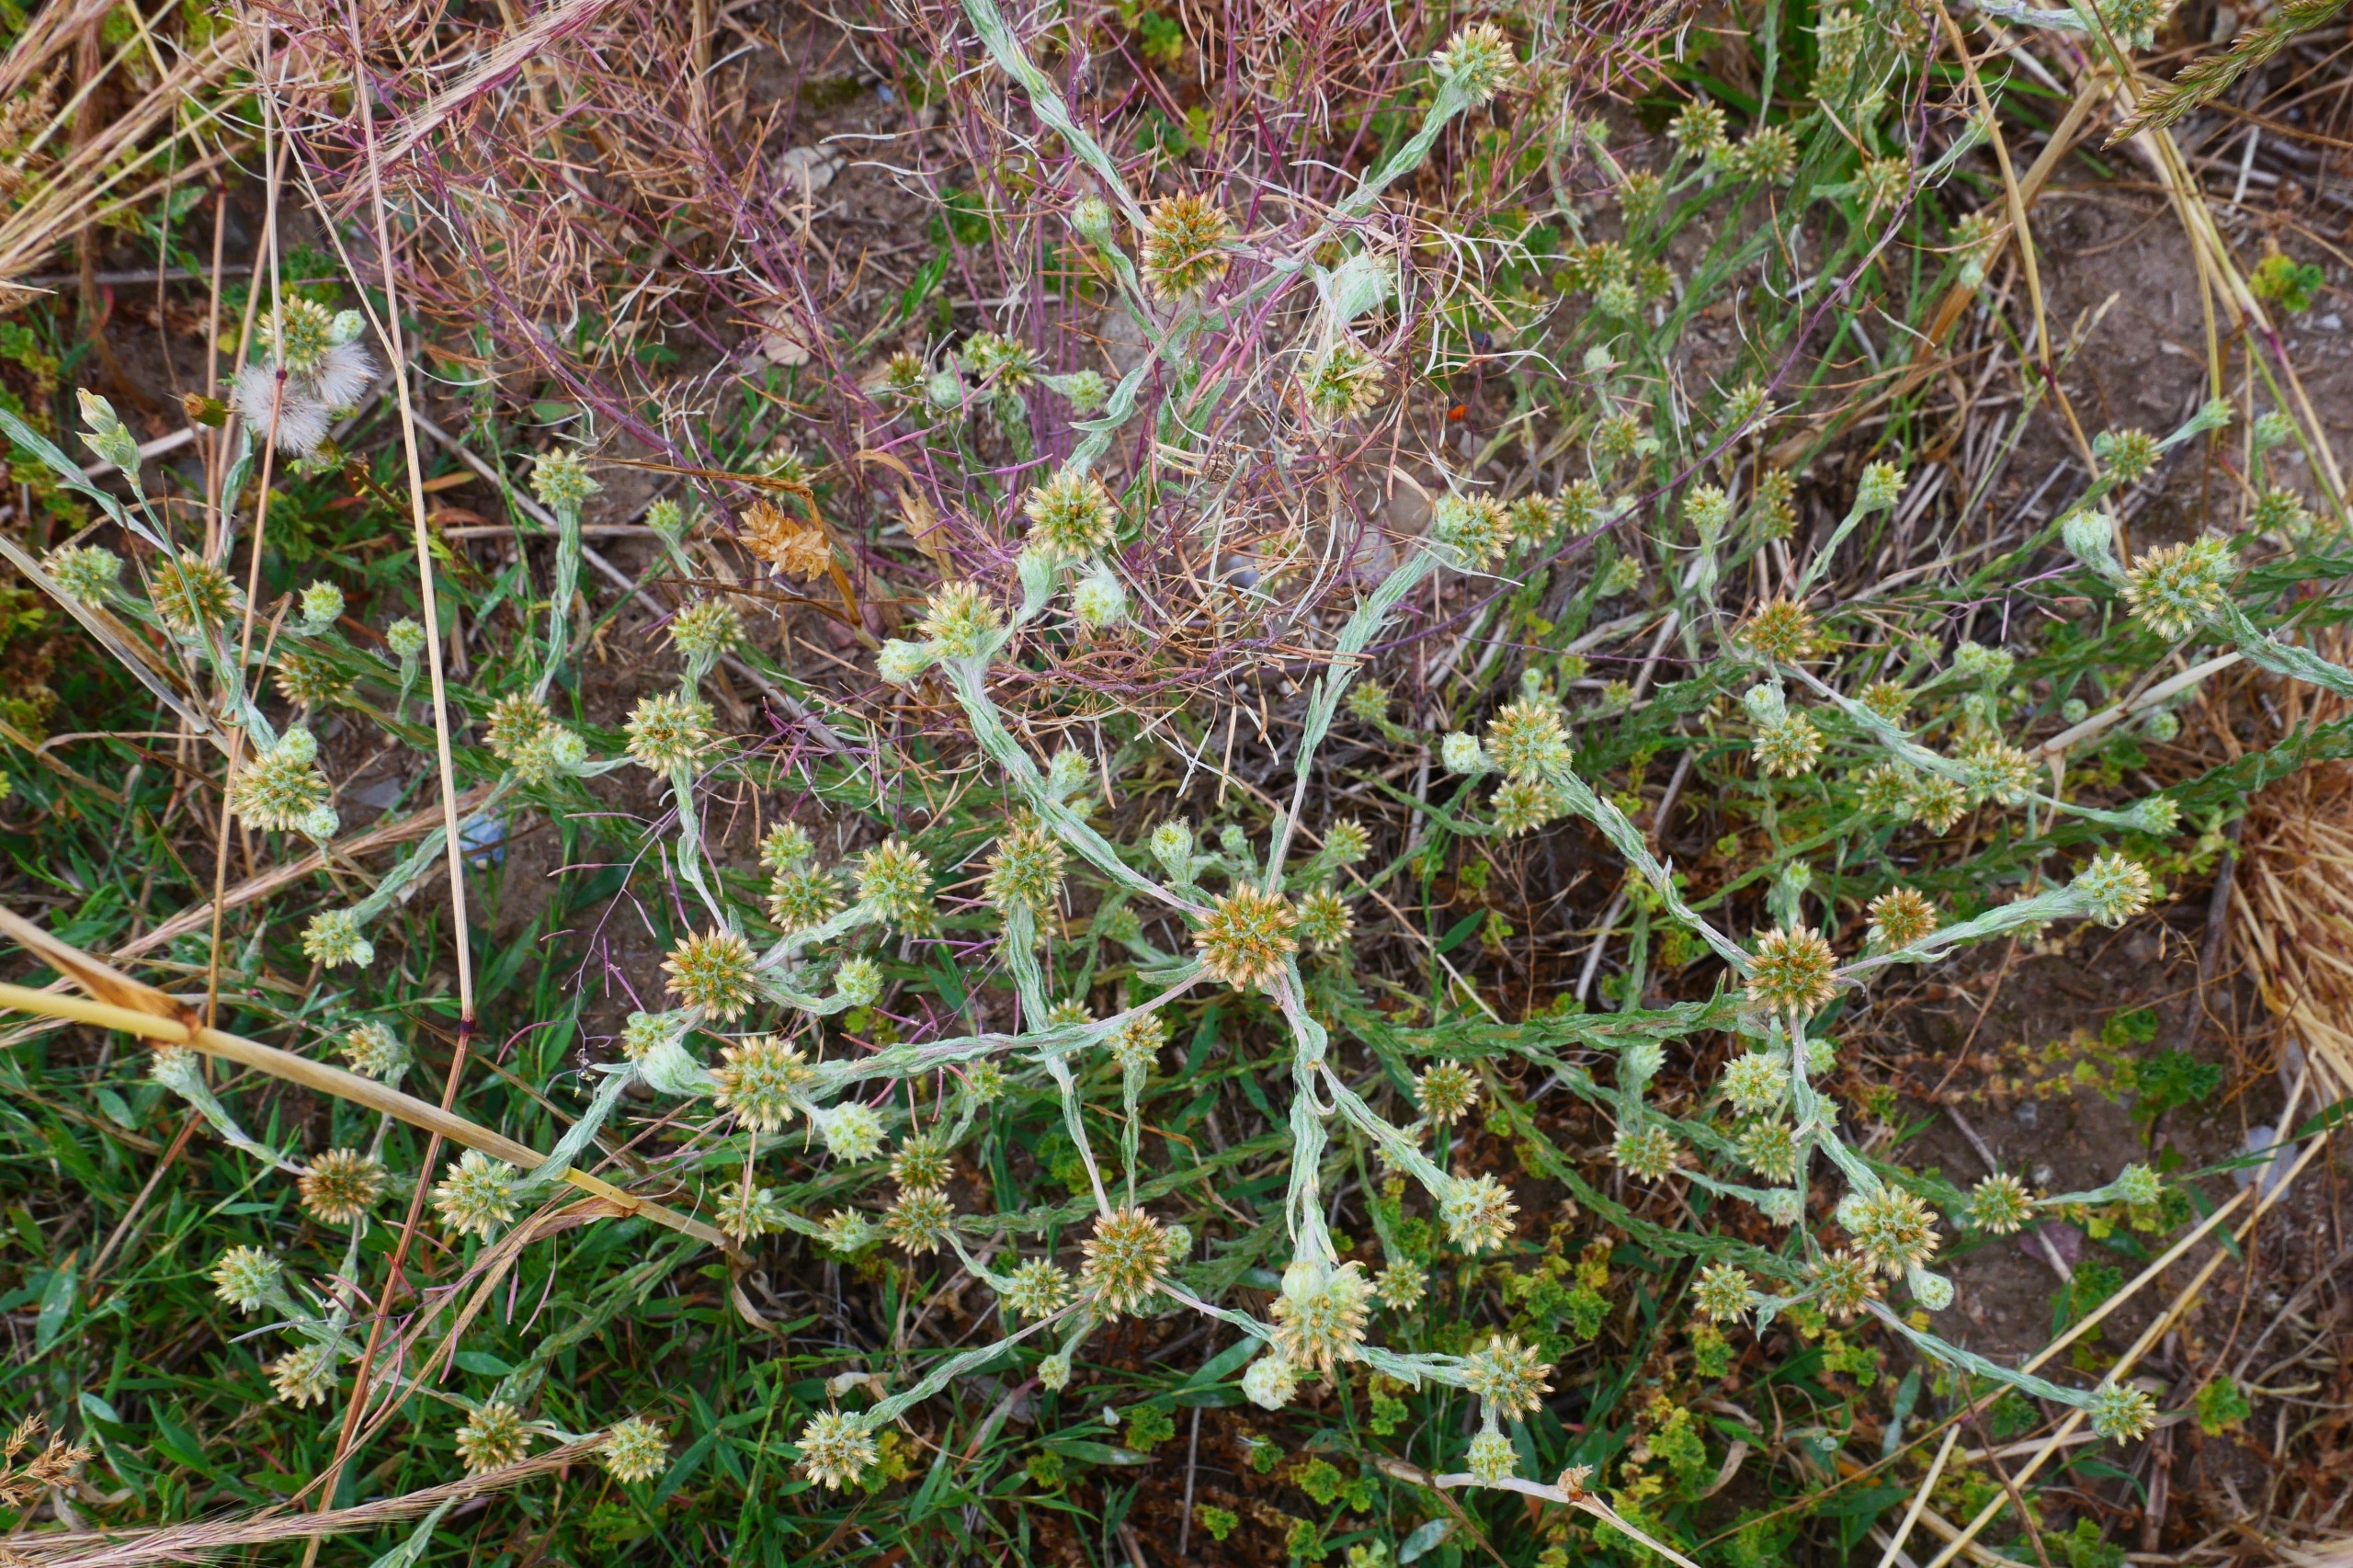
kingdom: Plantae
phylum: Tracheophyta
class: Magnoliopsida
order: Asterales
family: Asteraceae
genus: Filago
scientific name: Filago germanica
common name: Kugle-museurt
